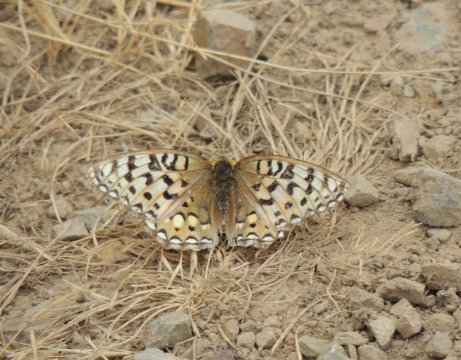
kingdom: Animalia
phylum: Arthropoda
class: Insecta
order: Lepidoptera
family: Nymphalidae
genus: Speyeria
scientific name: Speyeria callippe
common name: Callippe Fritillary
